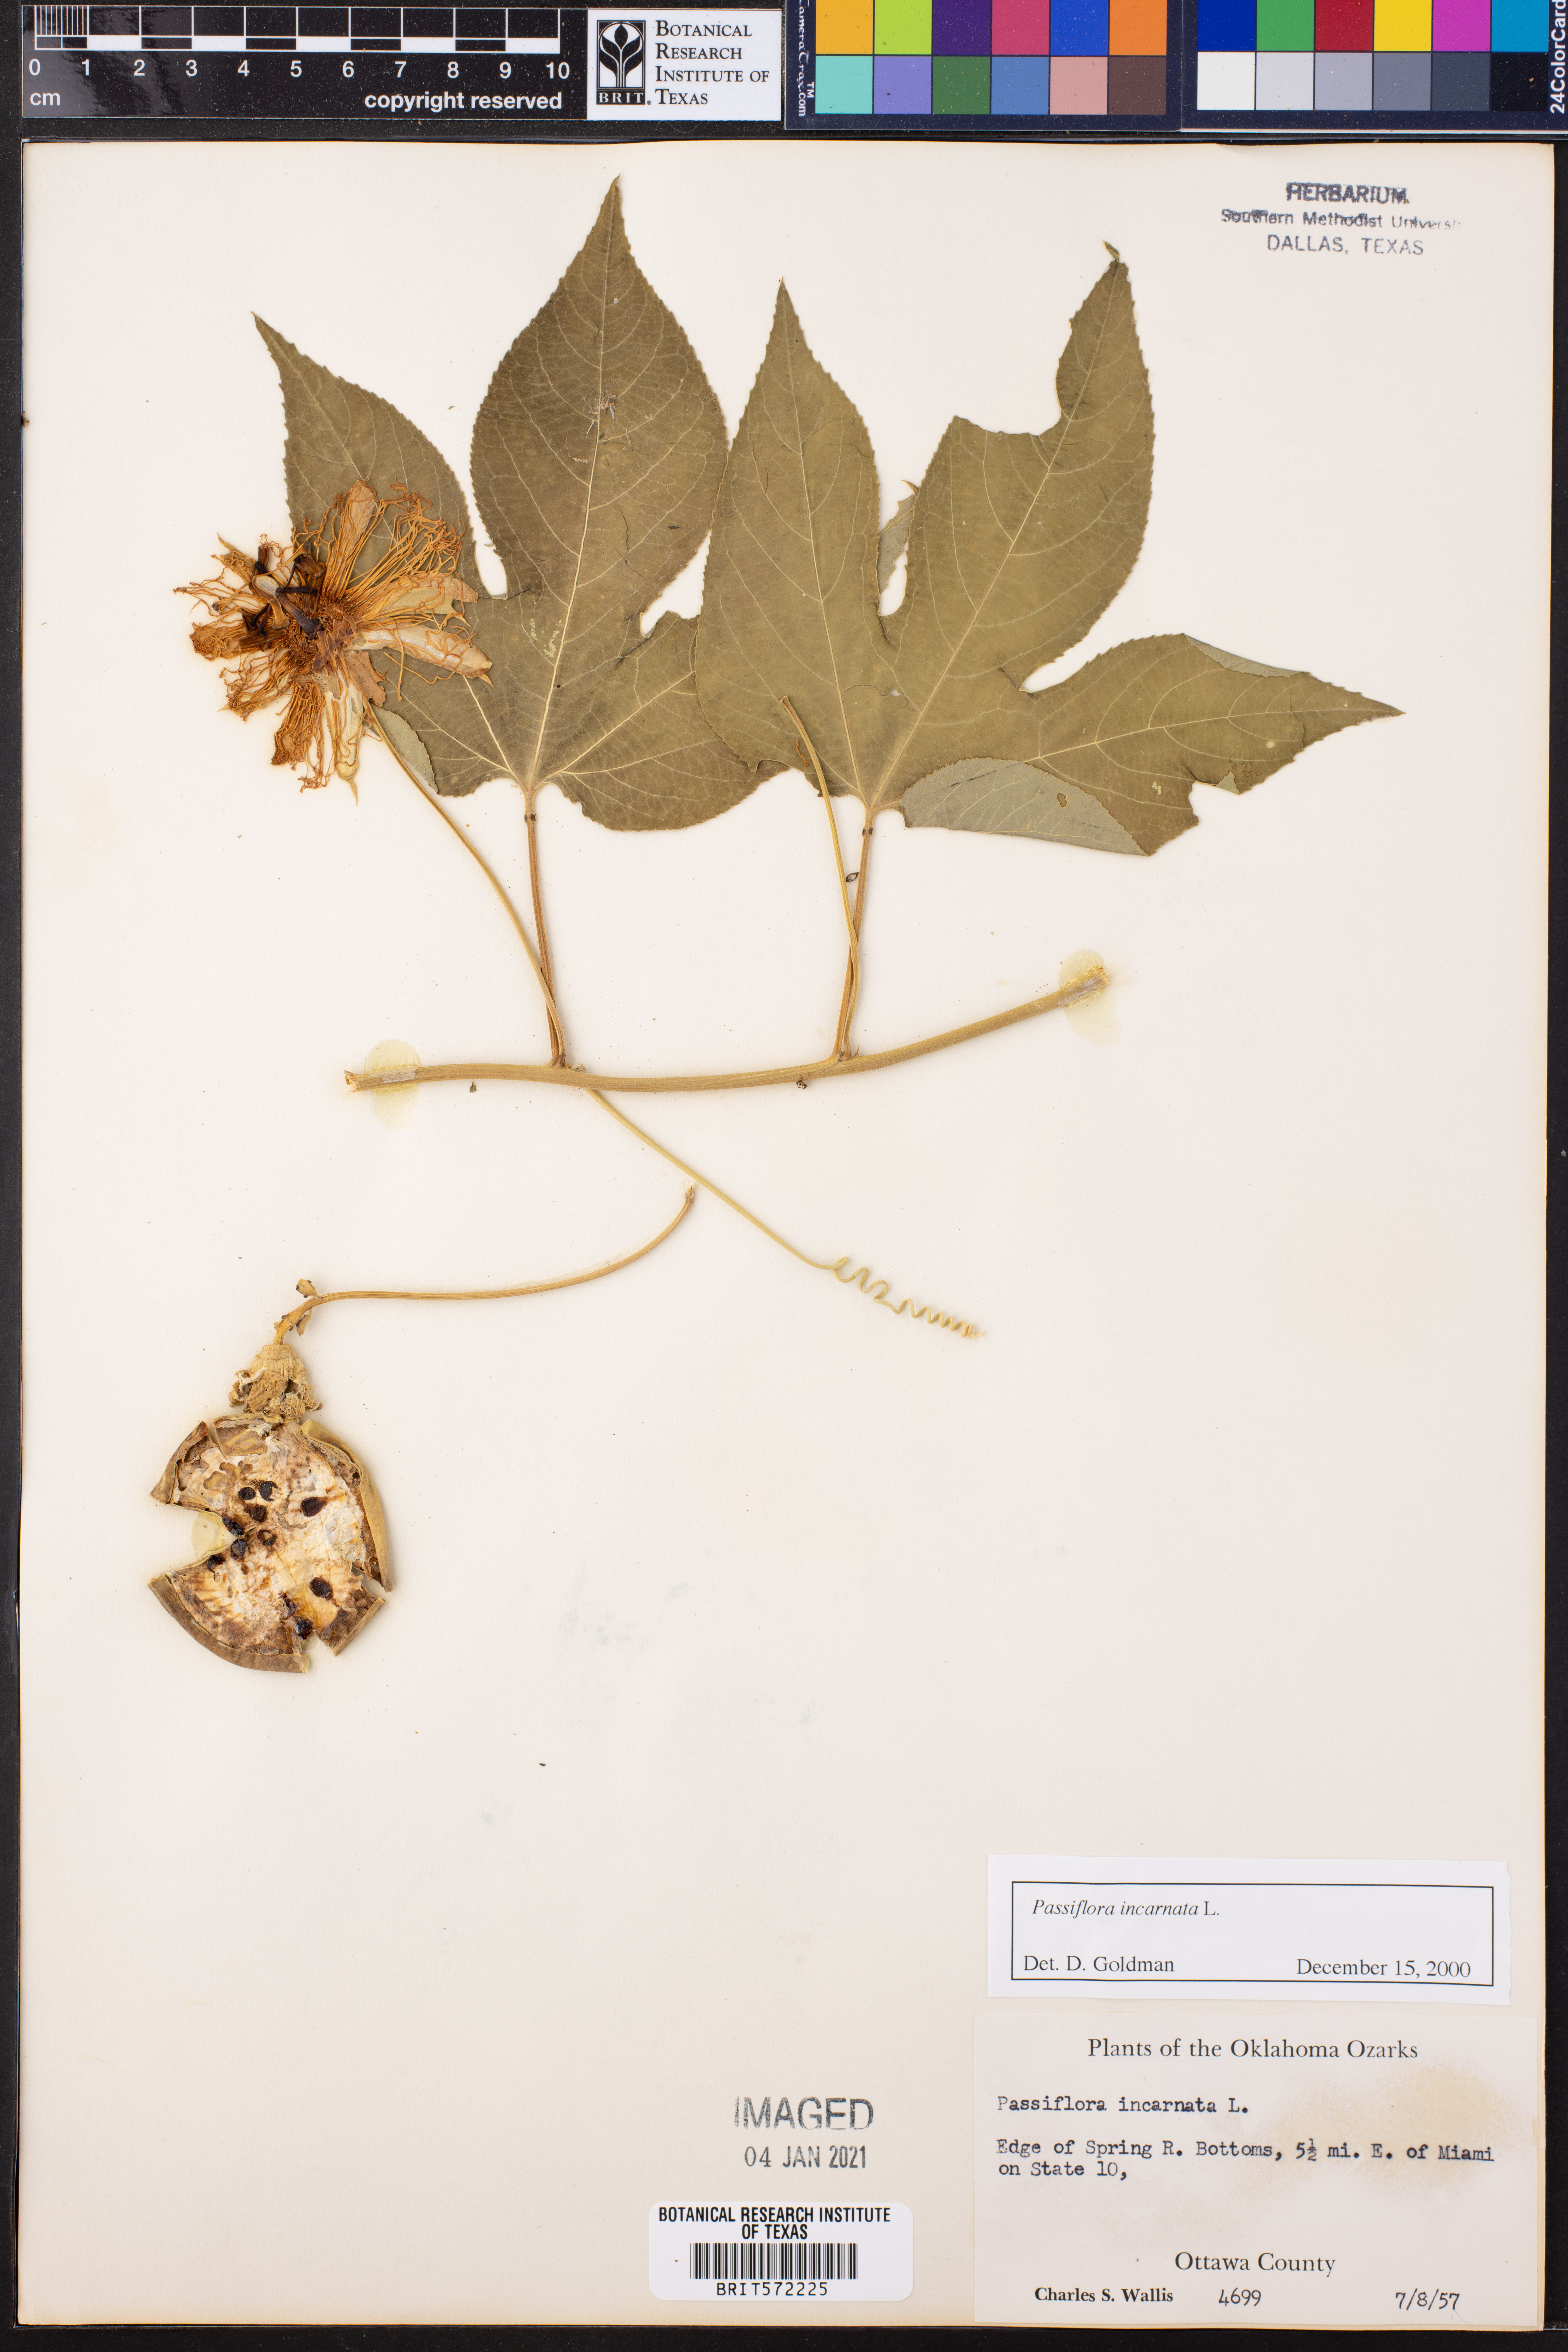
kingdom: Plantae
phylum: Tracheophyta
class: Magnoliopsida
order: Malpighiales
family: Passifloraceae
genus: Passiflora
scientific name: Passiflora incarnata
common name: Apricot-vine
